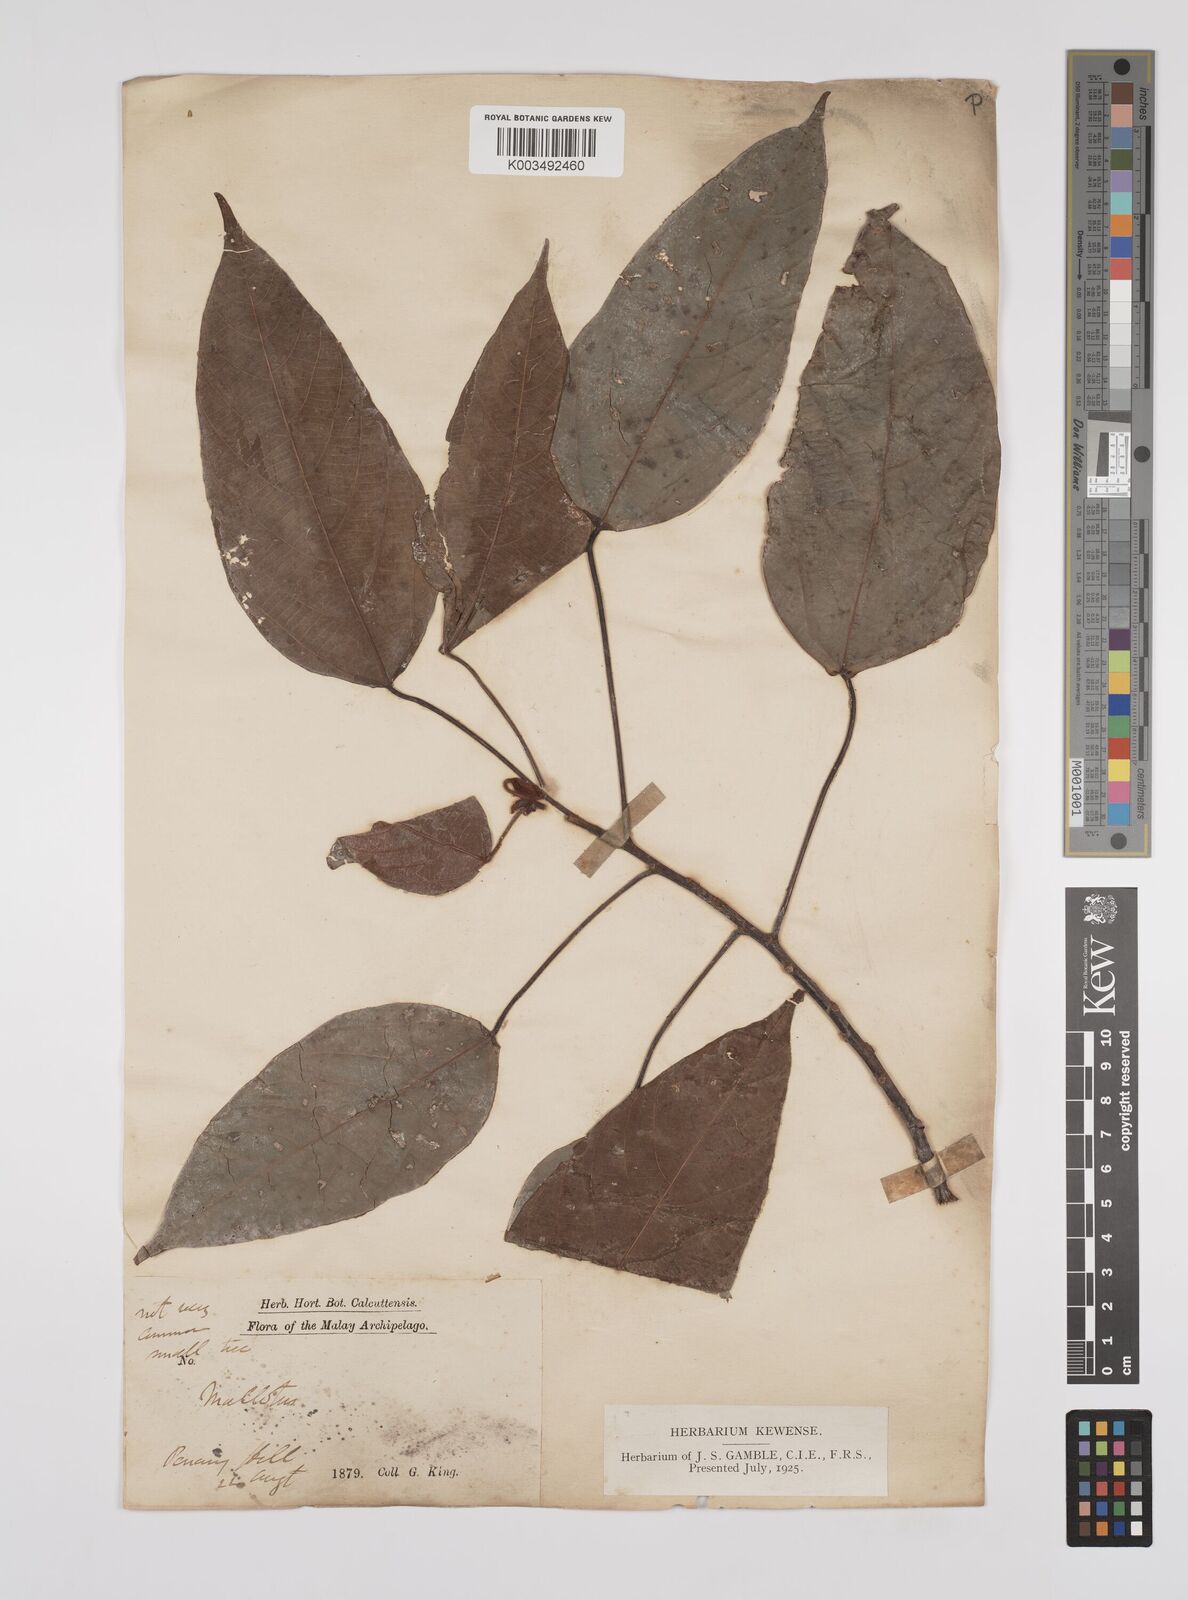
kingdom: Plantae
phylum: Tracheophyta
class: Magnoliopsida
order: Malpighiales
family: Euphorbiaceae
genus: Macaranga
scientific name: Macaranga heynei
